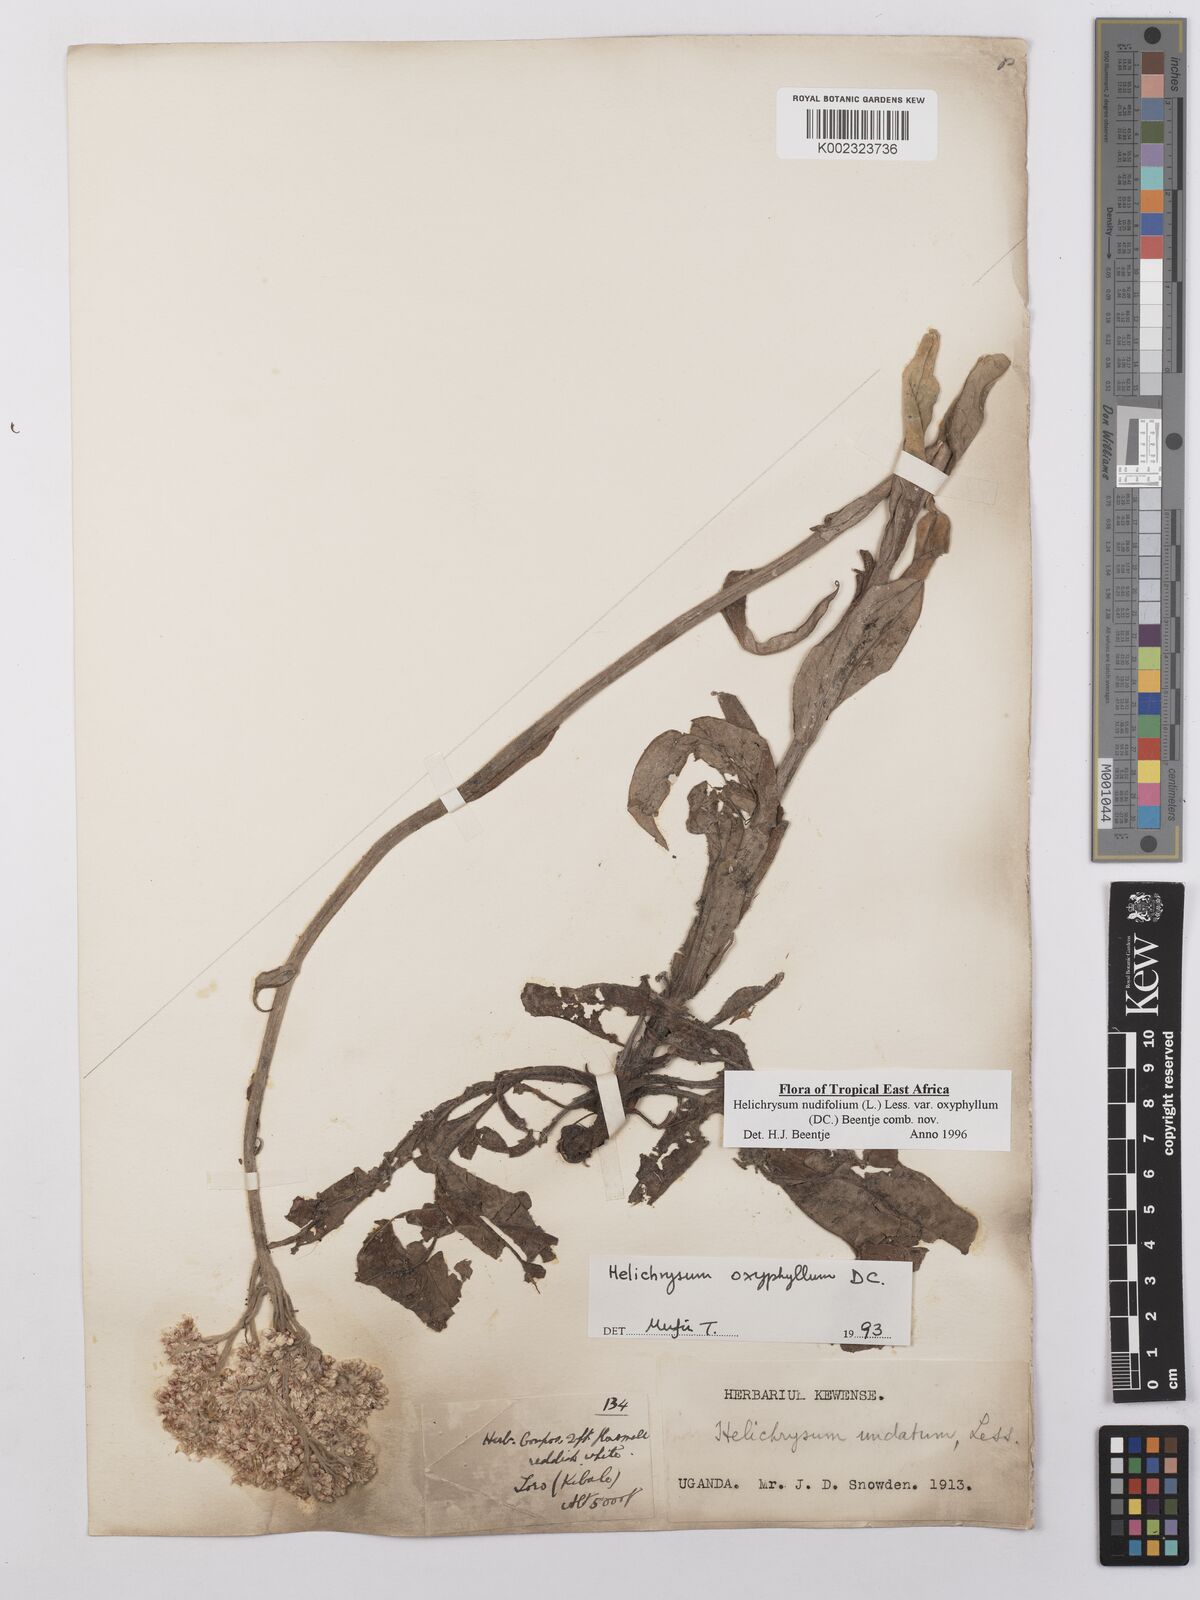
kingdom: Plantae
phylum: Tracheophyta
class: Magnoliopsida
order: Asterales
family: Asteraceae
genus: Helichrysum
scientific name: Helichrysum nudifolium
